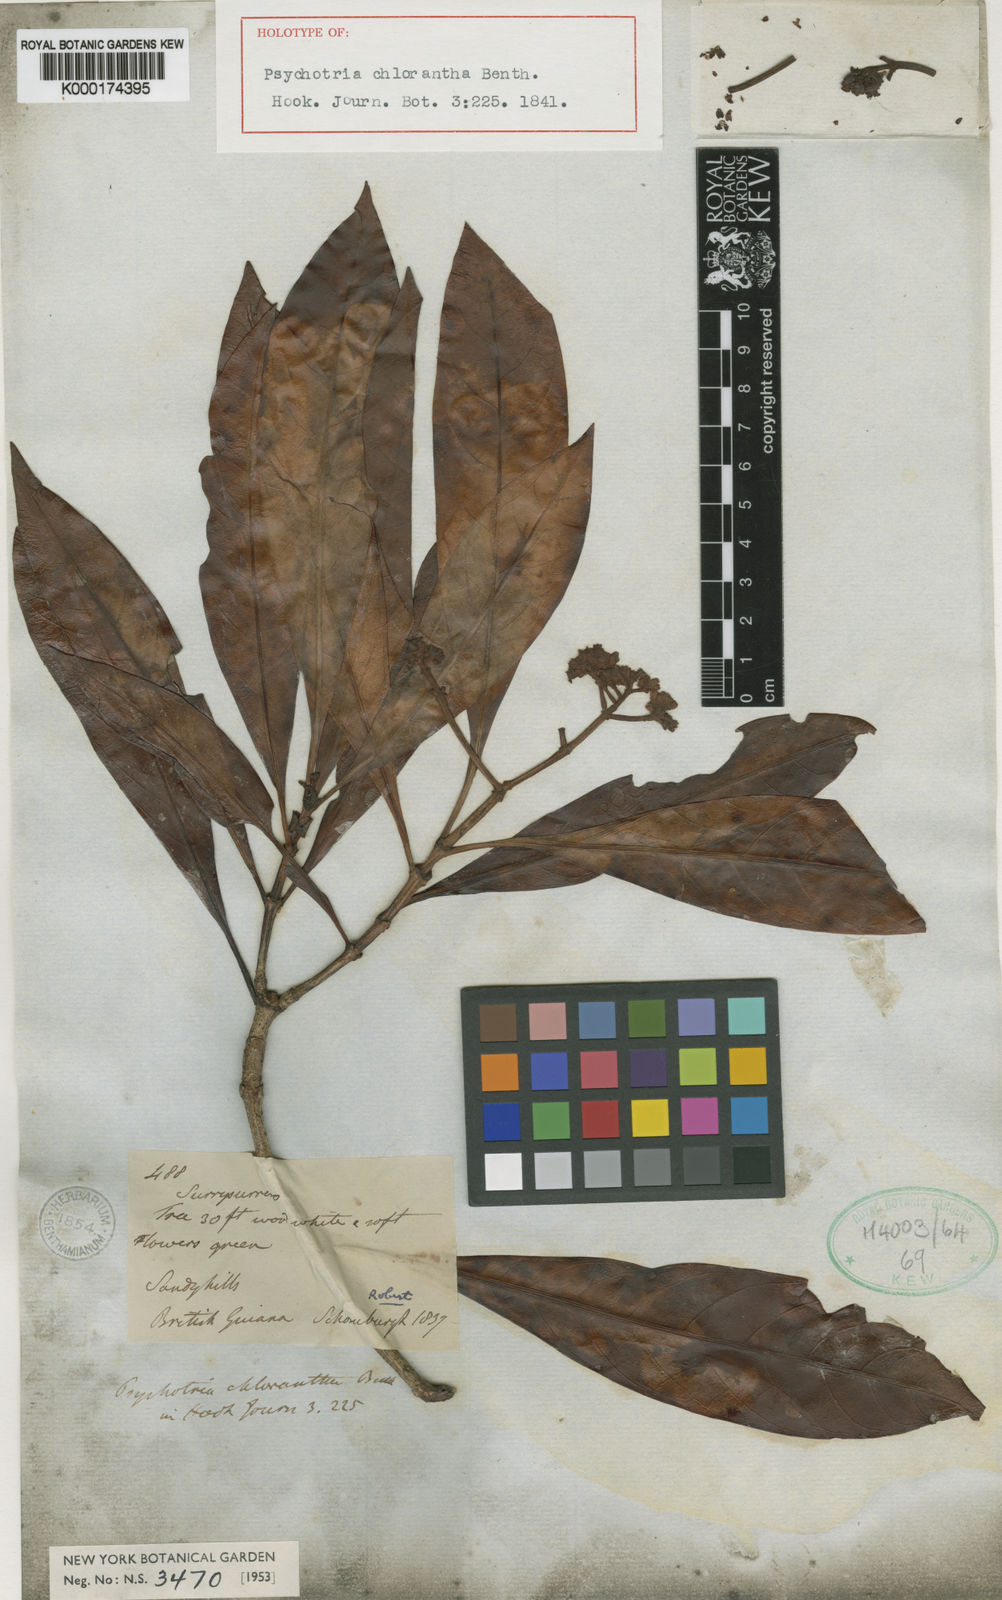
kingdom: Plantae
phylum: Tracheophyta
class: Magnoliopsida
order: Gentianales
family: Rubiaceae
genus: Psychotria
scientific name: Psychotria anceps
